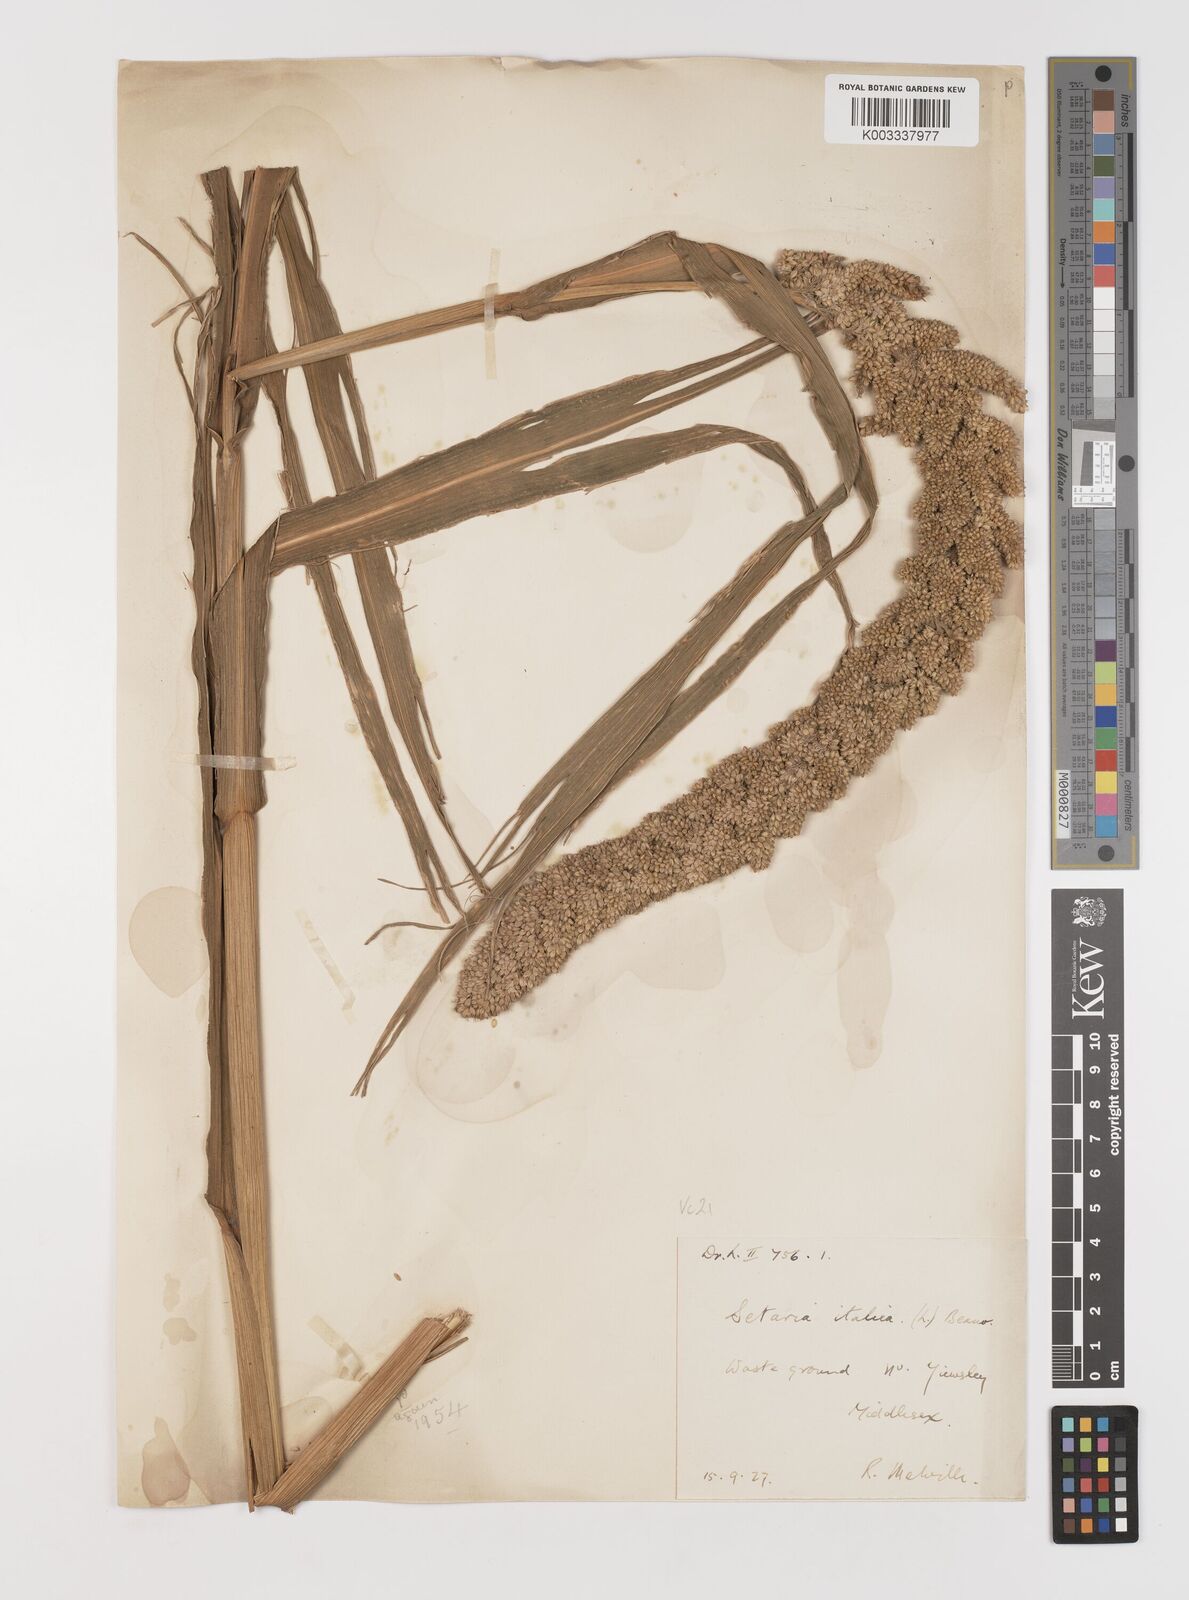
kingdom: Plantae
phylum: Tracheophyta
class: Liliopsida
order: Poales
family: Poaceae
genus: Setaria
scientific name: Setaria italica
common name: Foxtail bristle-grass
